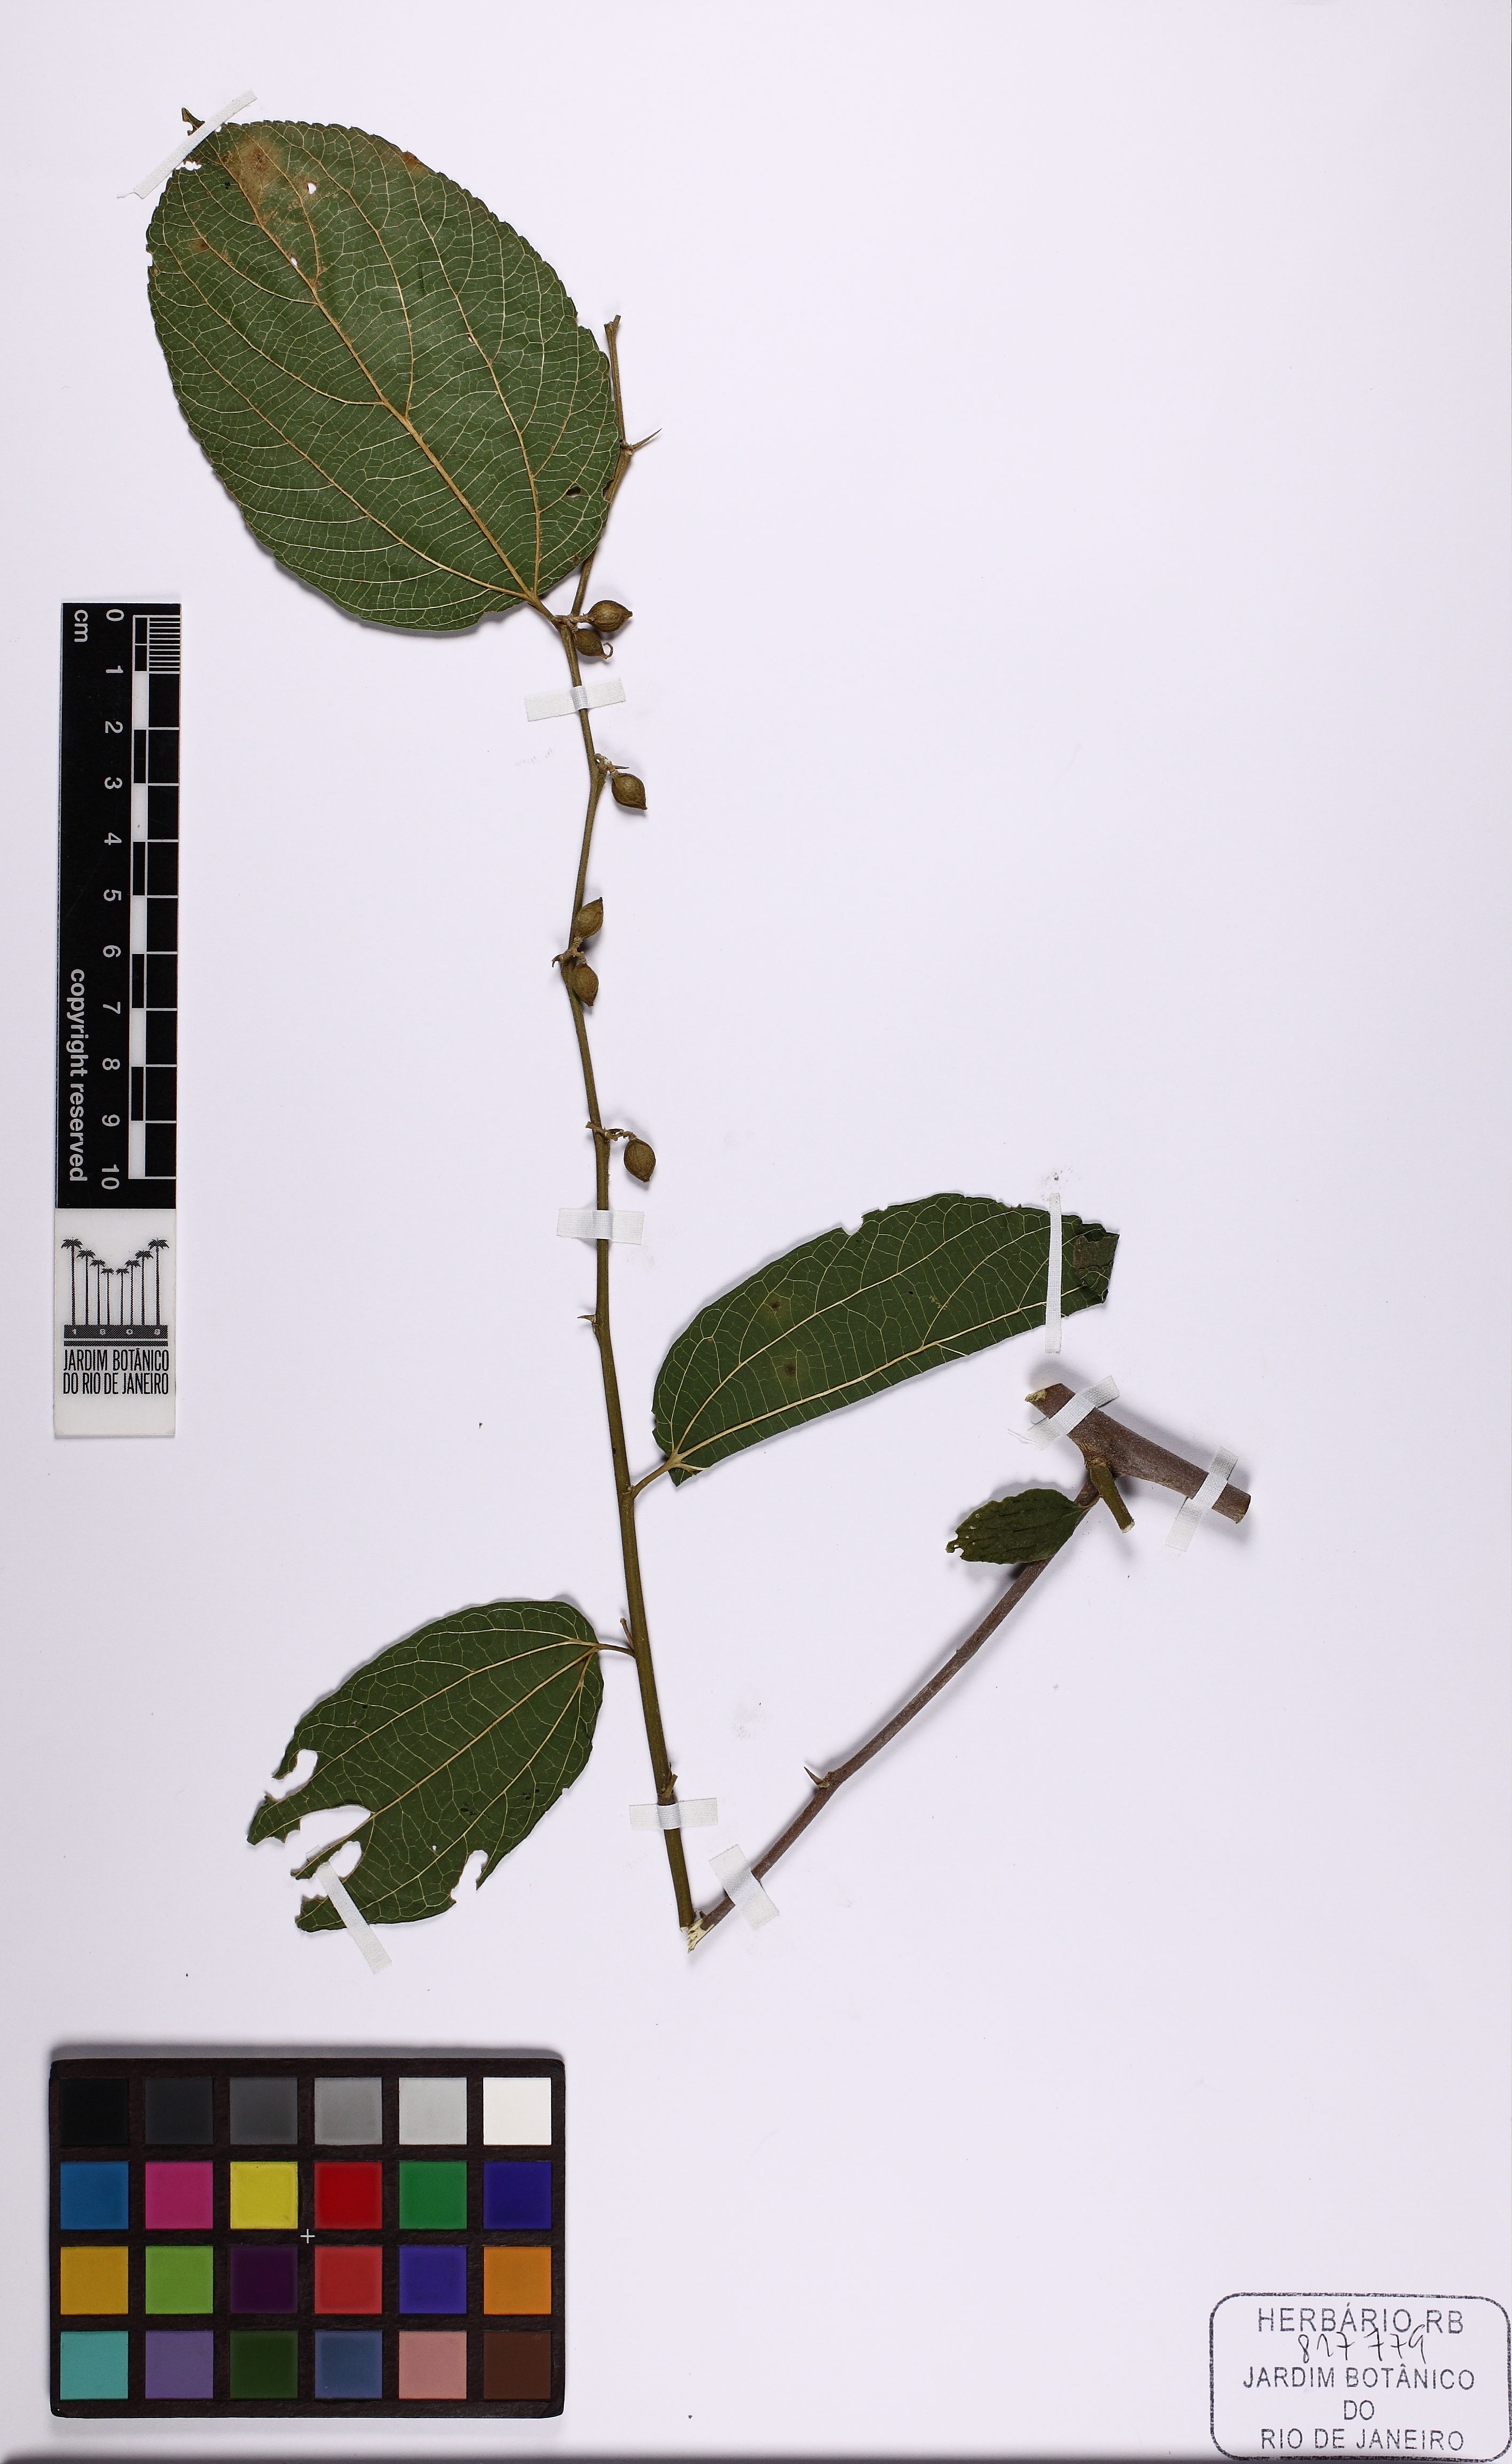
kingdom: Plantae
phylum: Tracheophyta
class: Magnoliopsida
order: Rosales
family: Cannabaceae
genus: Celtis
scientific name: Celtis
